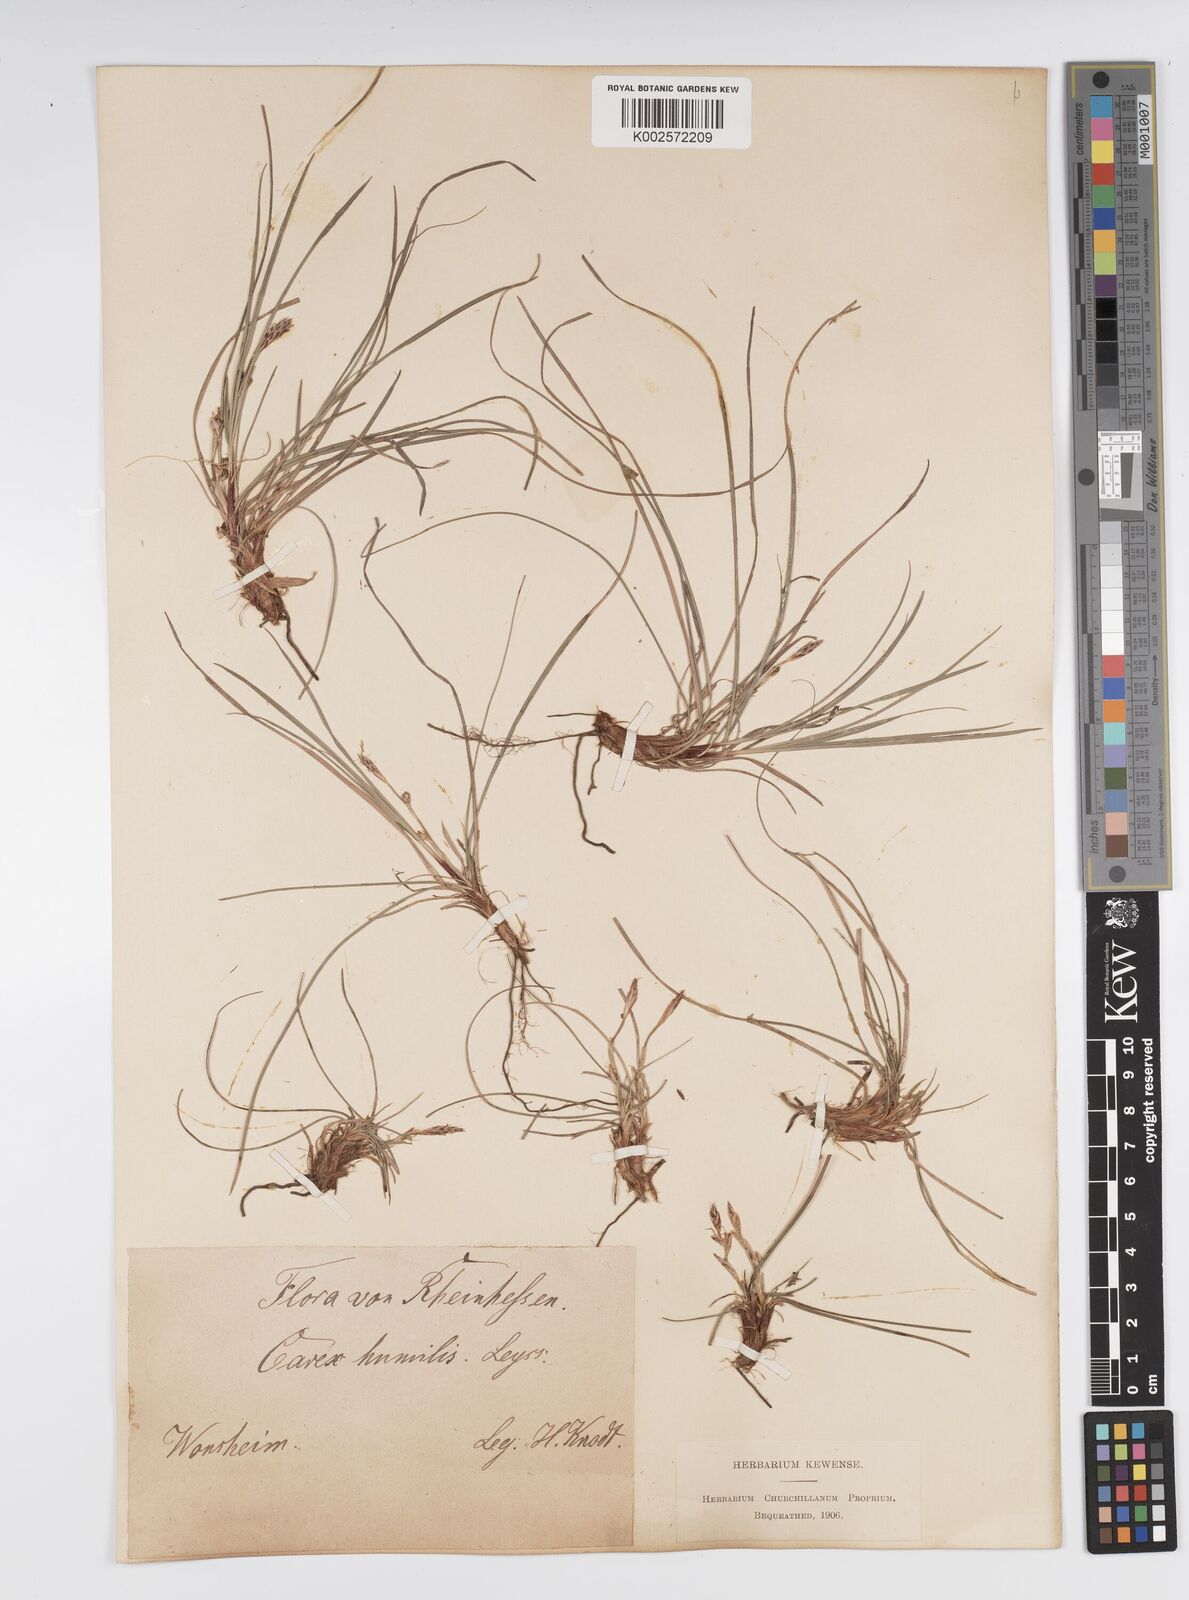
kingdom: Plantae
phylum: Tracheophyta
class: Liliopsida
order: Poales
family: Cyperaceae
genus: Carex
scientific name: Carex humilis
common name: Dwarf sedge
